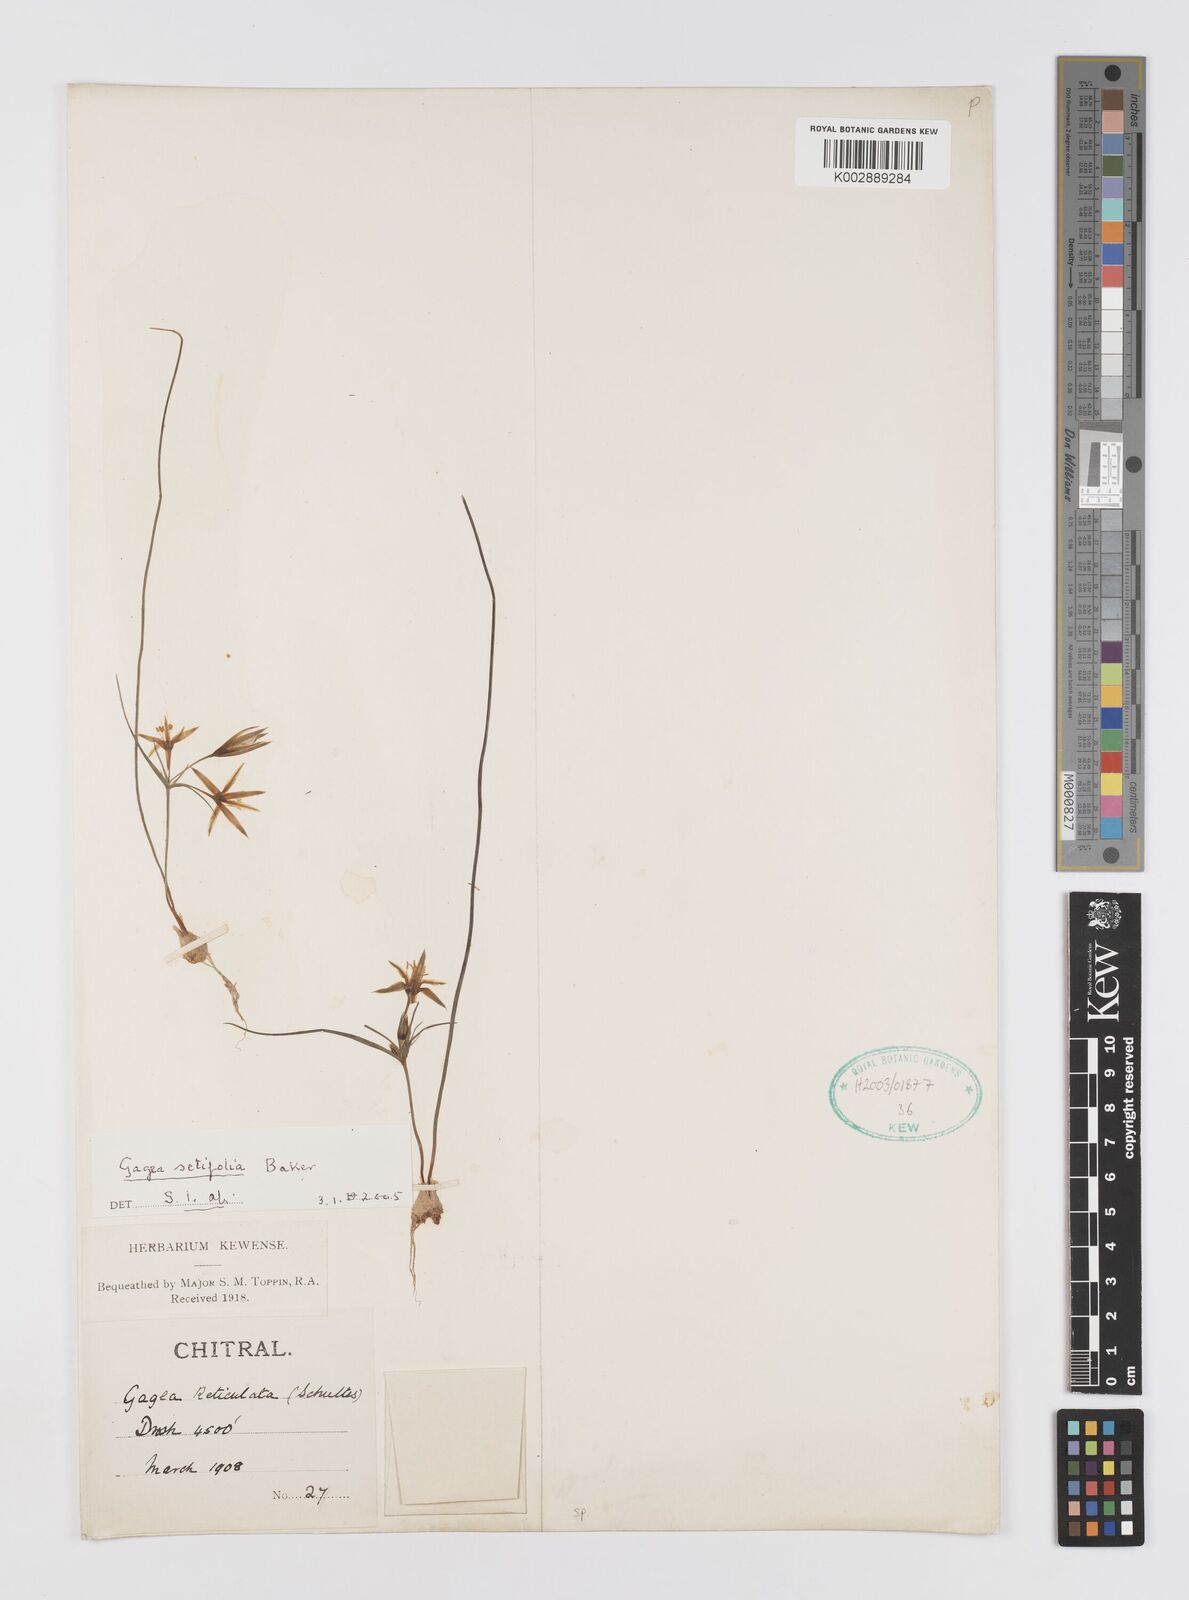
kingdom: Plantae
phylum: Tracheophyta
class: Liliopsida
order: Liliales
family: Liliaceae
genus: Gagea
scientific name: Gagea setifolia
